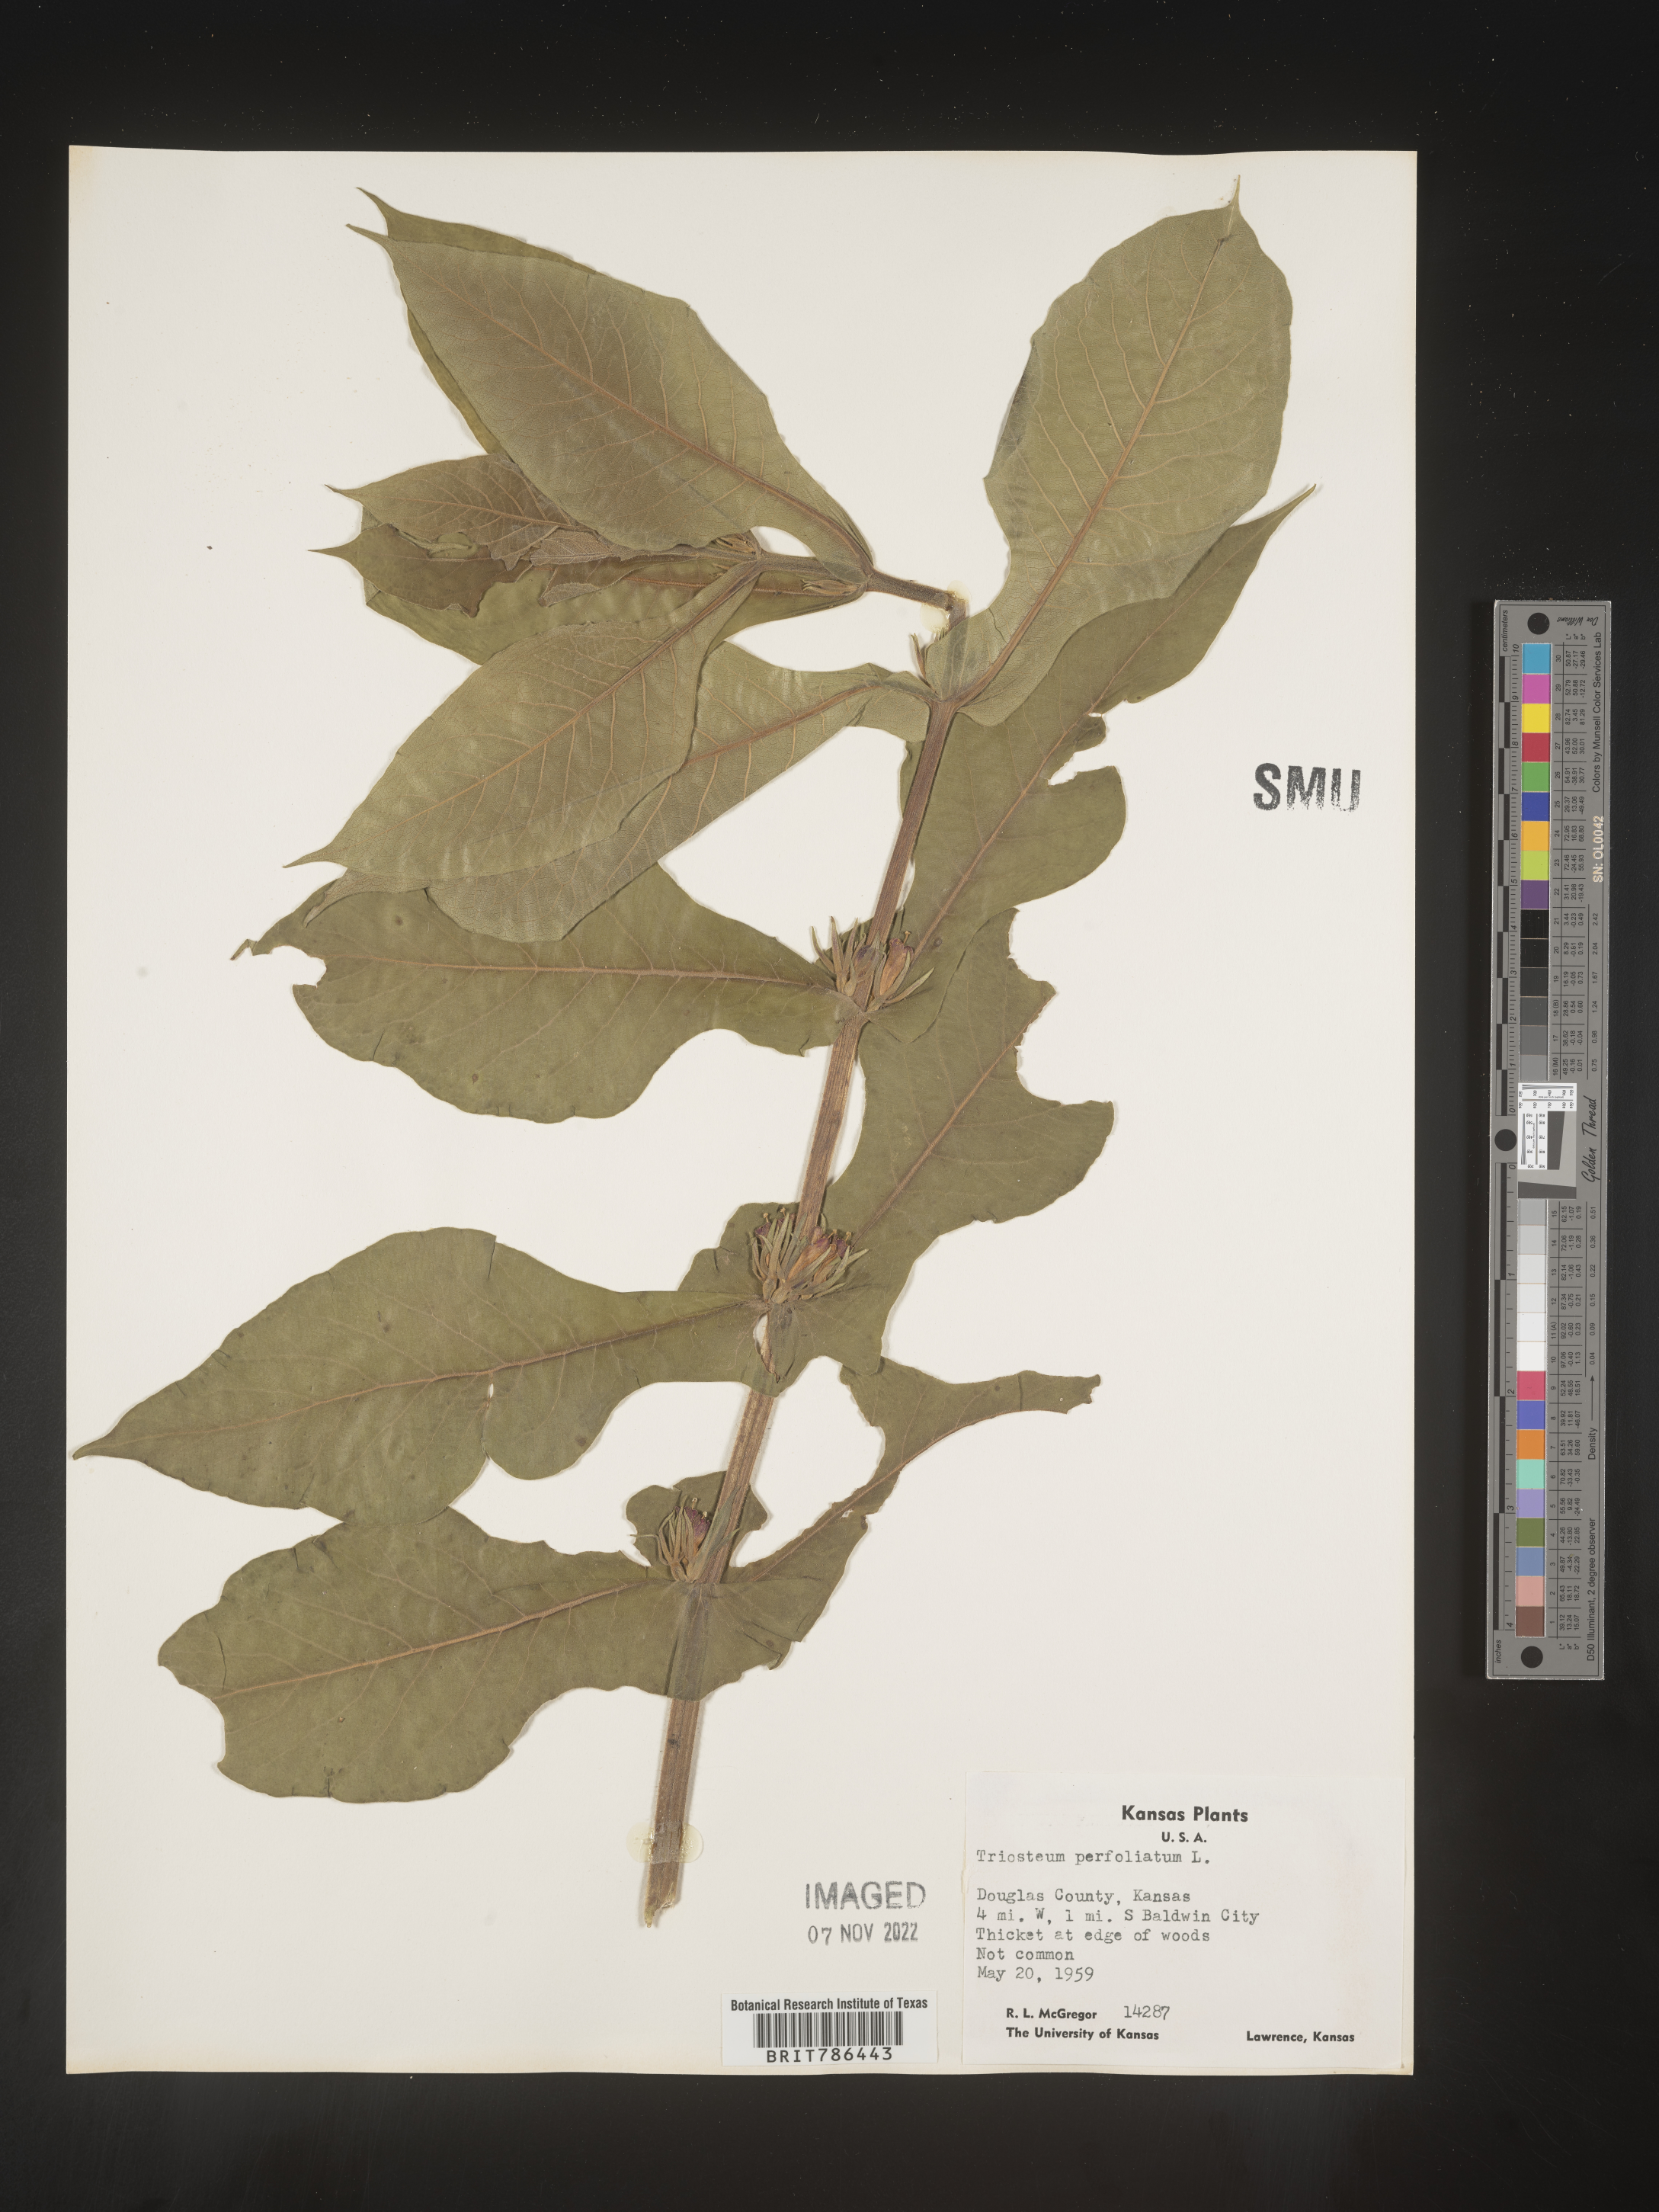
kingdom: Plantae
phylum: Tracheophyta
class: Magnoliopsida
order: Dipsacales
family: Caprifoliaceae
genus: Triosteum
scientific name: Triosteum perfoliatum
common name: Common horse-gentian
